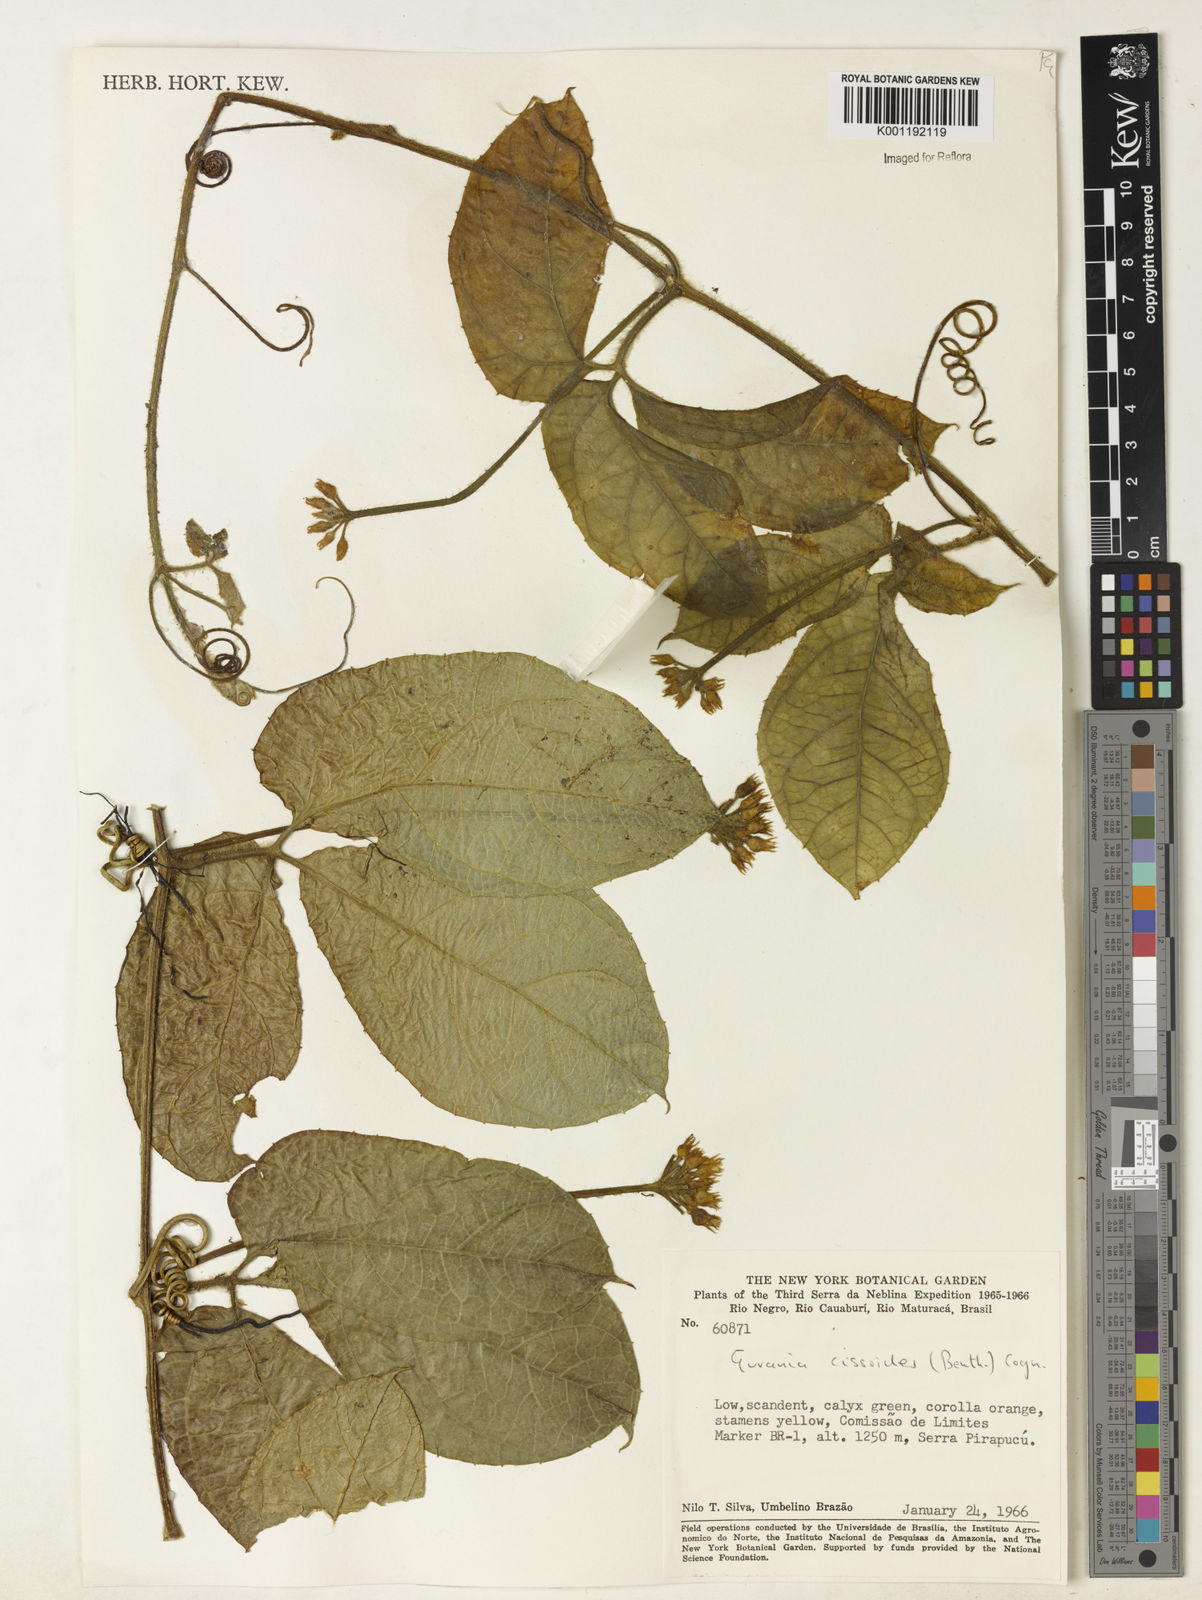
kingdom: Plantae
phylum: Tracheophyta
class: Magnoliopsida
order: Cucurbitales
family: Cucurbitaceae
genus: Gurania
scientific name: Gurania bignoniacea
